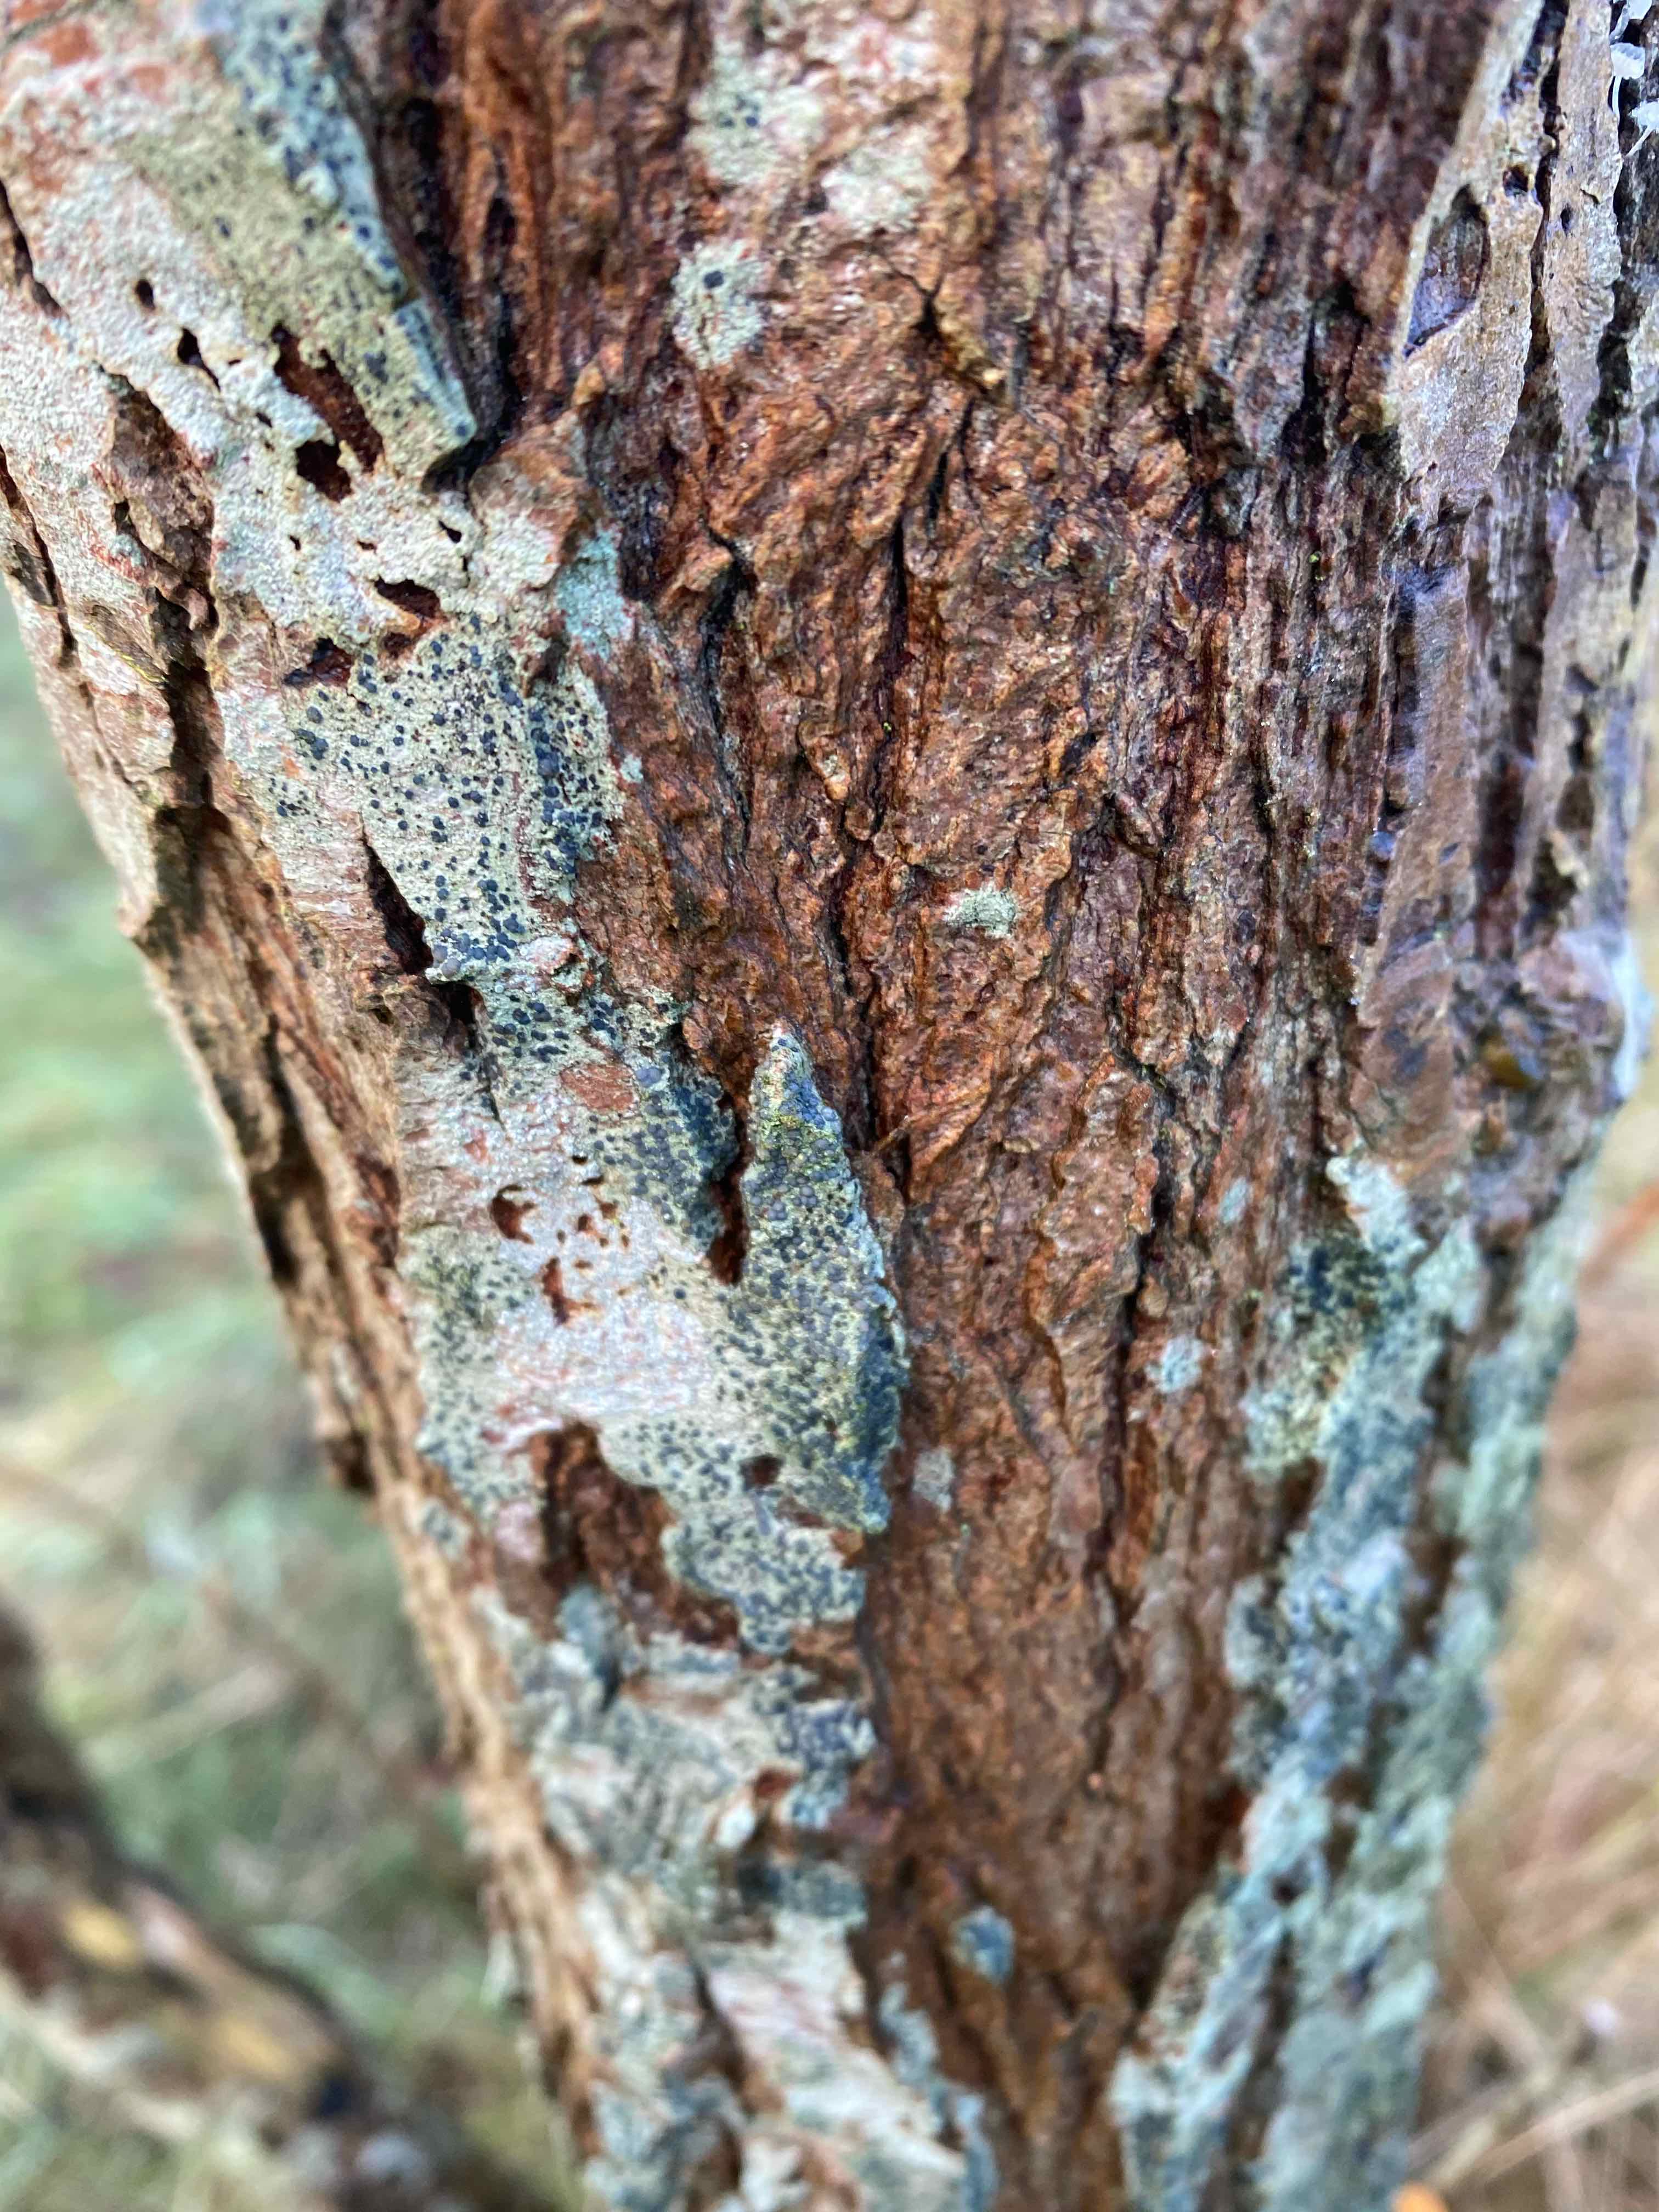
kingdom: Fungi
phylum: Basidiomycota
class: Agaricomycetes
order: Agaricales
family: Physalacriaceae
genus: Flammulina
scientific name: Flammulina
